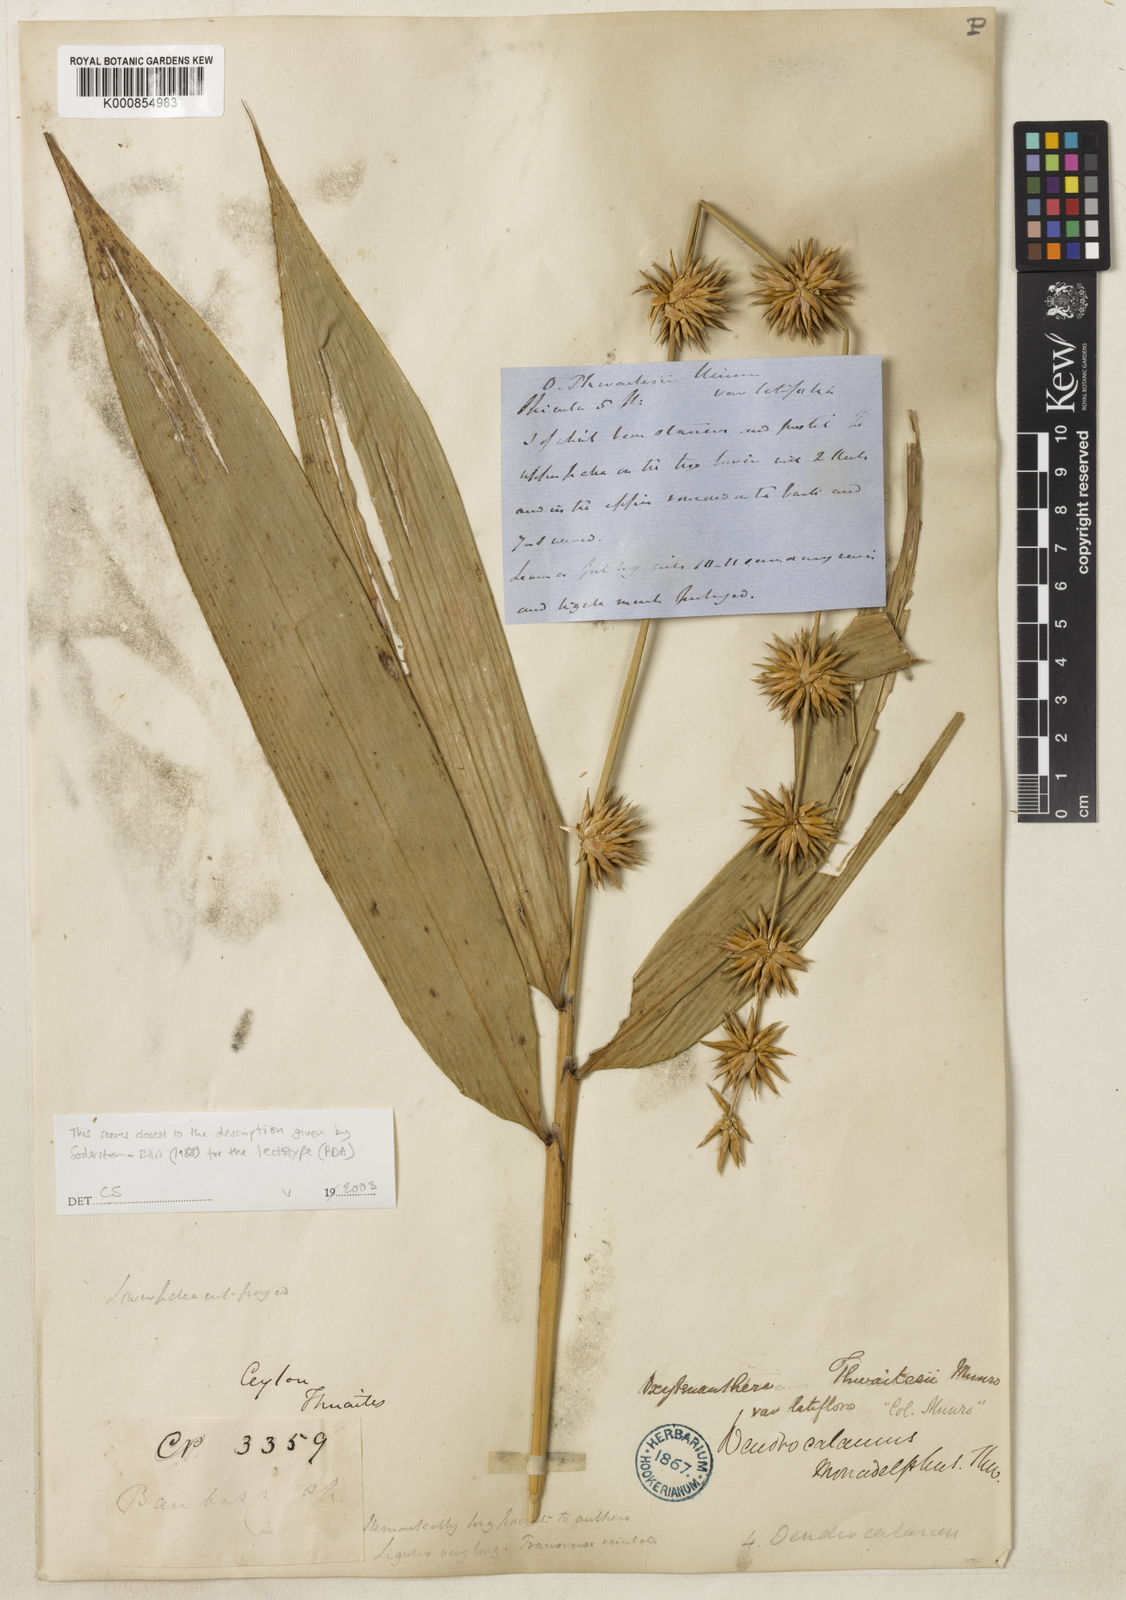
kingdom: Plantae
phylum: Tracheophyta
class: Liliopsida
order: Poales
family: Poaceae
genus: Pseudoxytenanthera
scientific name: Pseudoxytenanthera monadelpha
